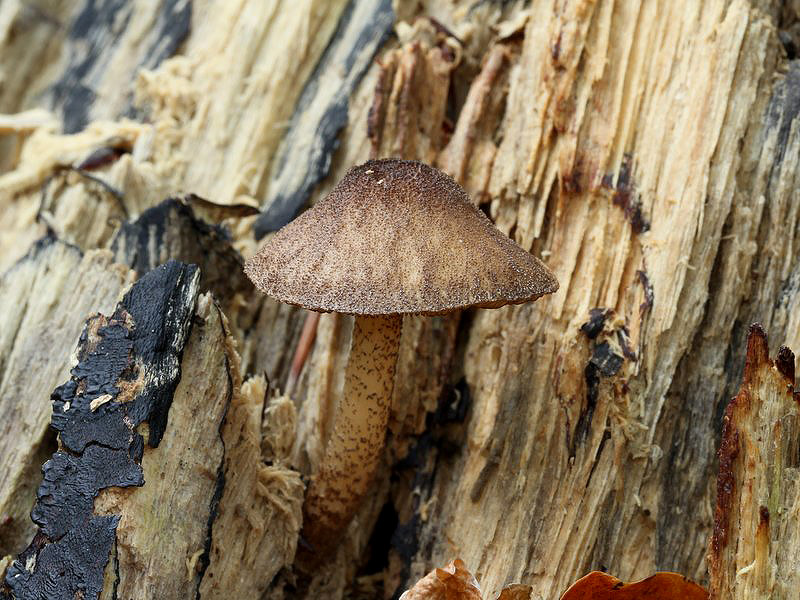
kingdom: Fungi
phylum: Basidiomycota
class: Agaricomycetes
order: Agaricales
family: Pluteaceae
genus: Pluteus
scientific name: Pluteus umbrosus
